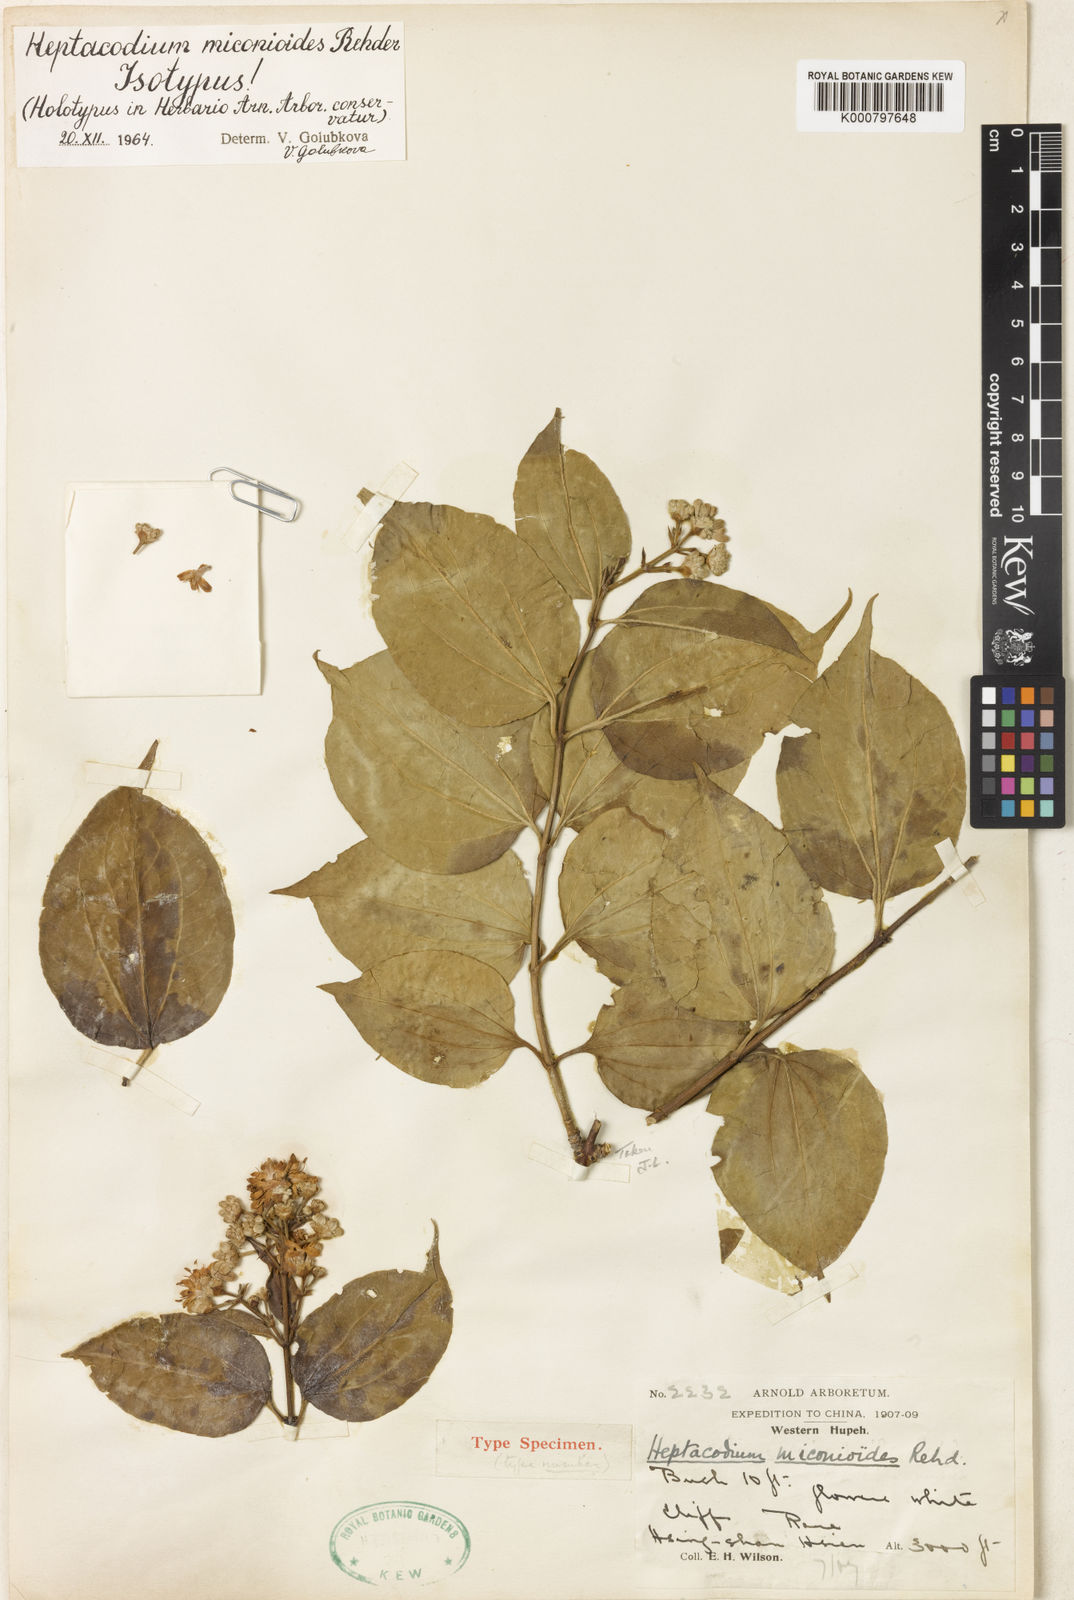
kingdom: Plantae
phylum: Tracheophyta
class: Magnoliopsida
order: Dipsacales
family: Caprifoliaceae
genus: Heptacodium
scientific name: Heptacodium miconioides
